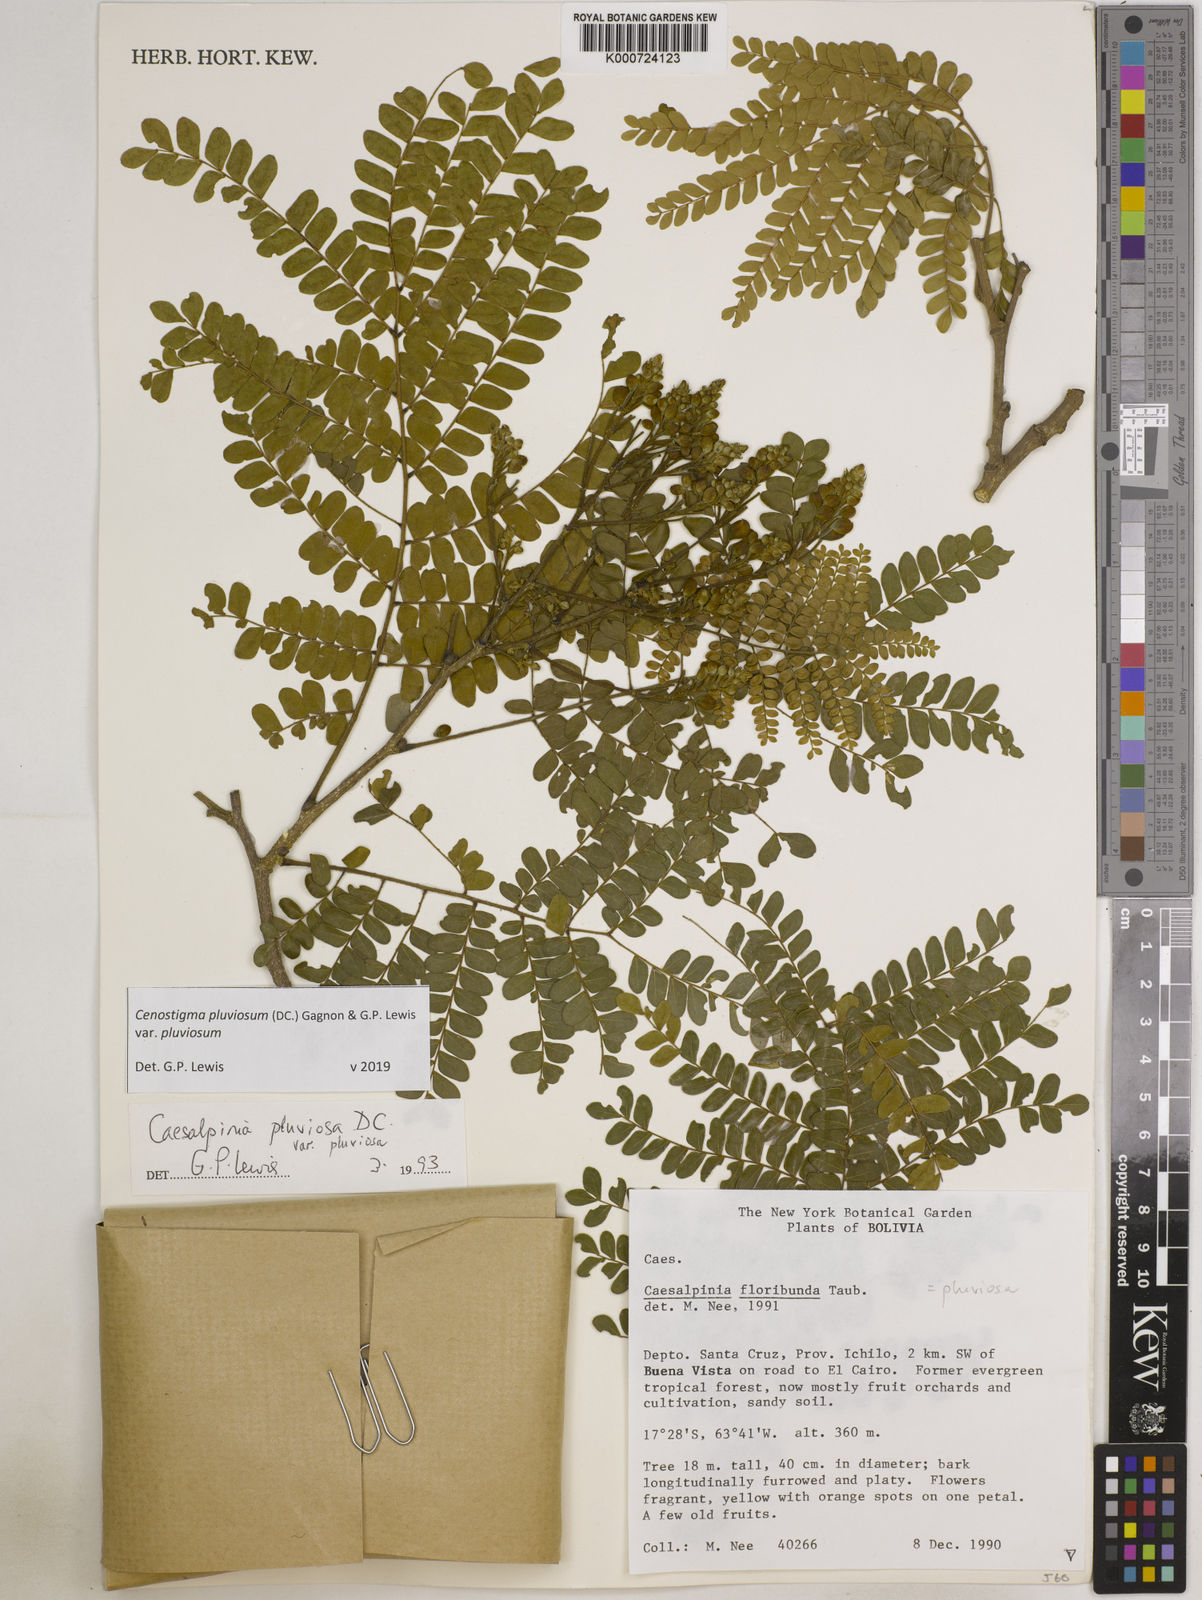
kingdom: Plantae
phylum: Tracheophyta
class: Magnoliopsida
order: Fabales
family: Fabaceae
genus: Cenostigma
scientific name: Cenostigma pluviosum
